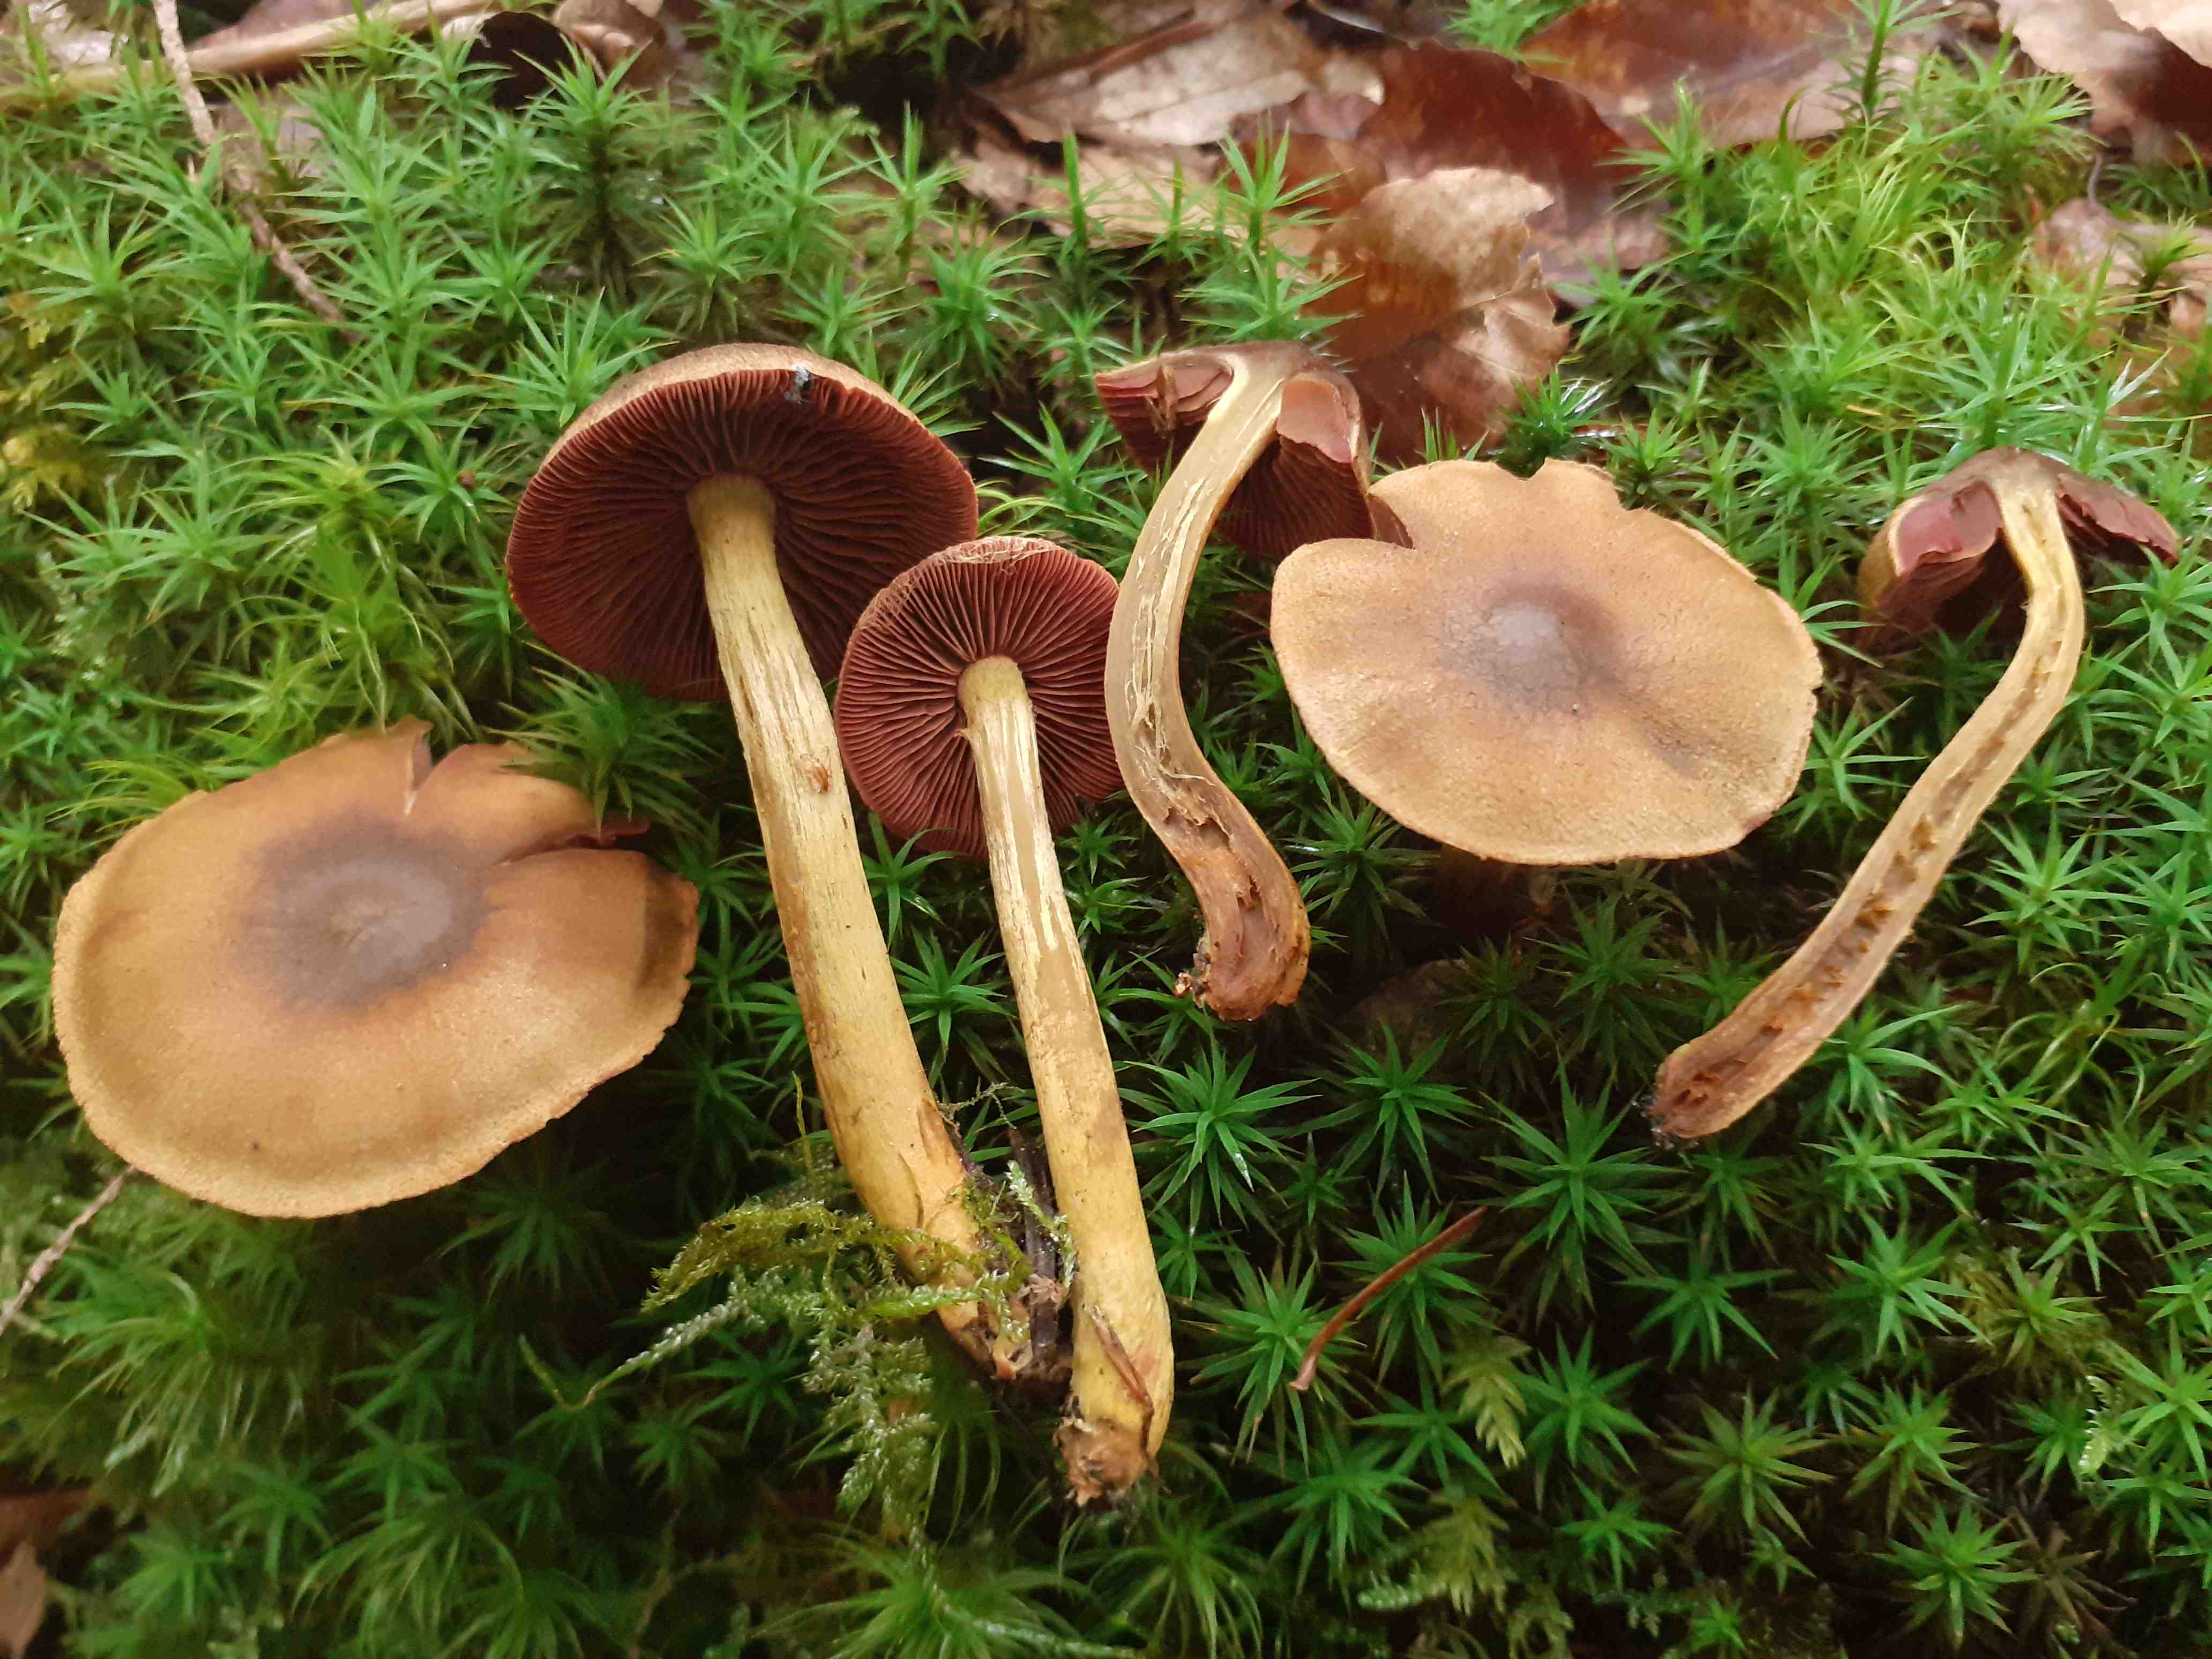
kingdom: Fungi
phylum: Basidiomycota
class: Agaricomycetes
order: Agaricales
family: Cortinariaceae
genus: Cortinarius
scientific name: Cortinarius ominosus
